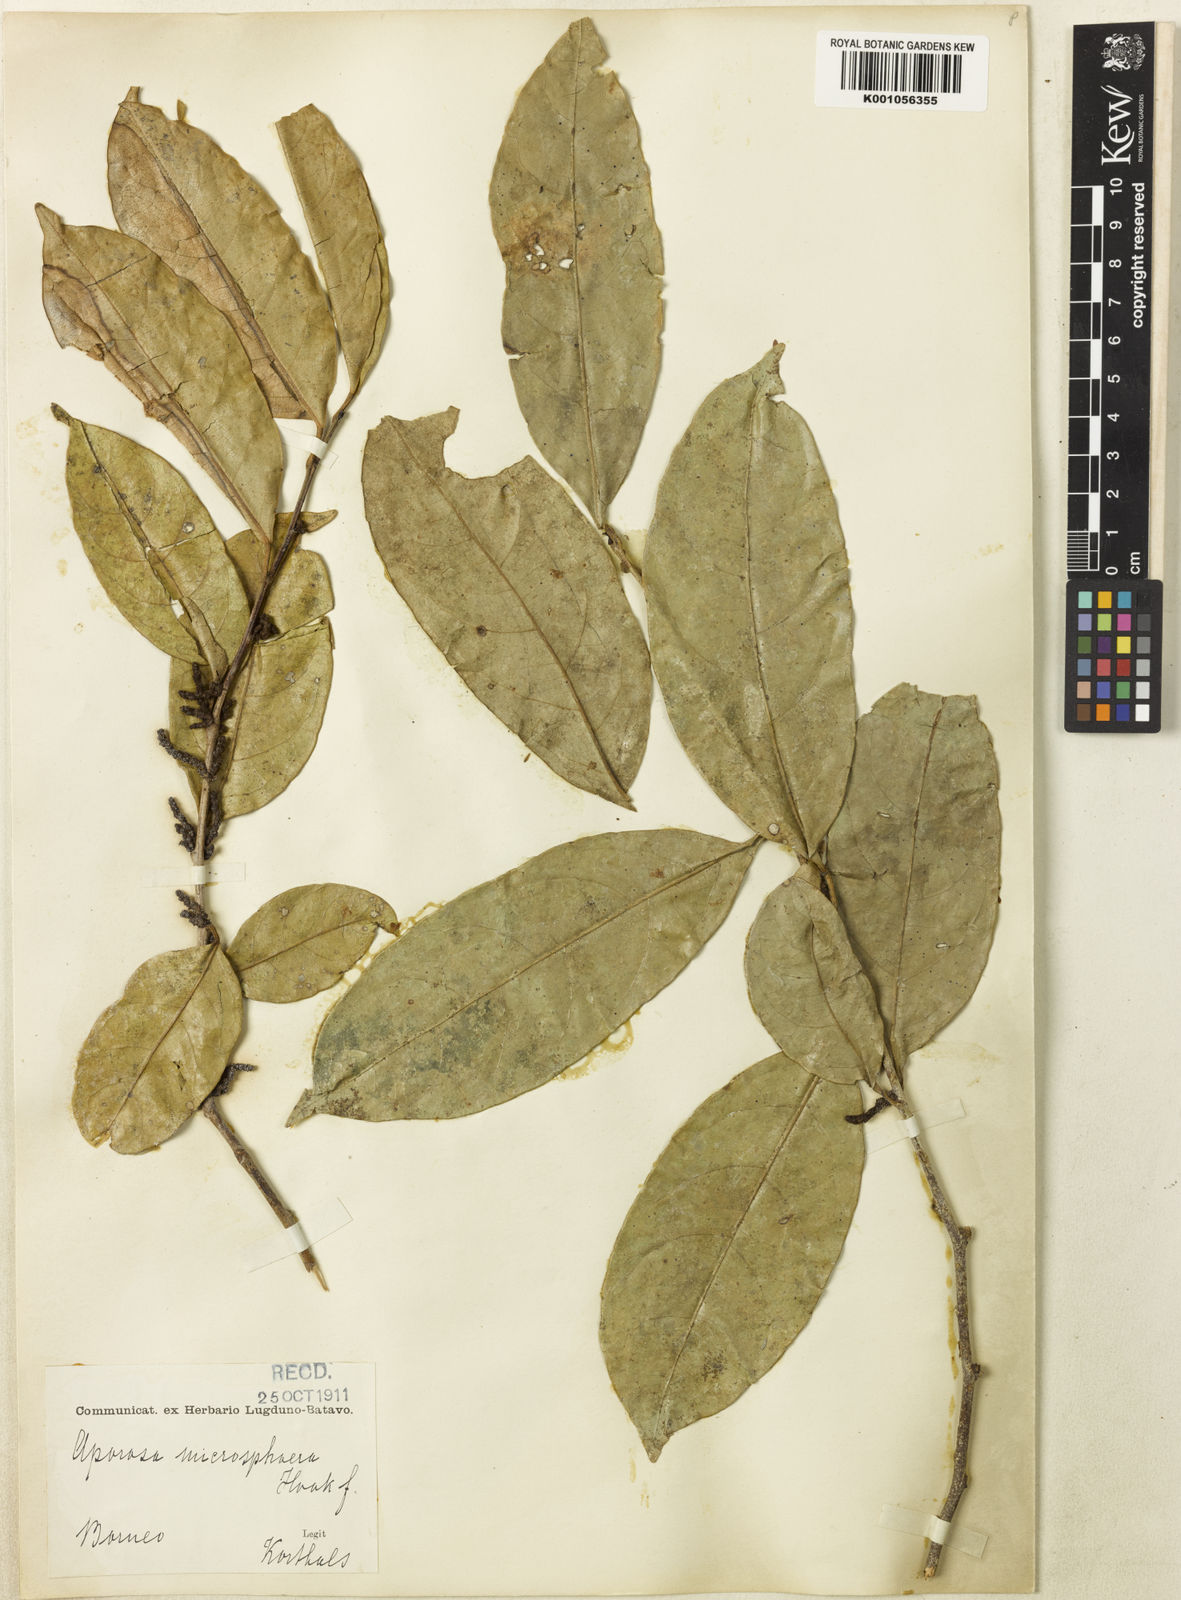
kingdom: Plantae
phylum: Tracheophyta
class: Magnoliopsida
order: Malpighiales
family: Phyllanthaceae
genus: Aporosa
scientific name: Aporosa lucida
